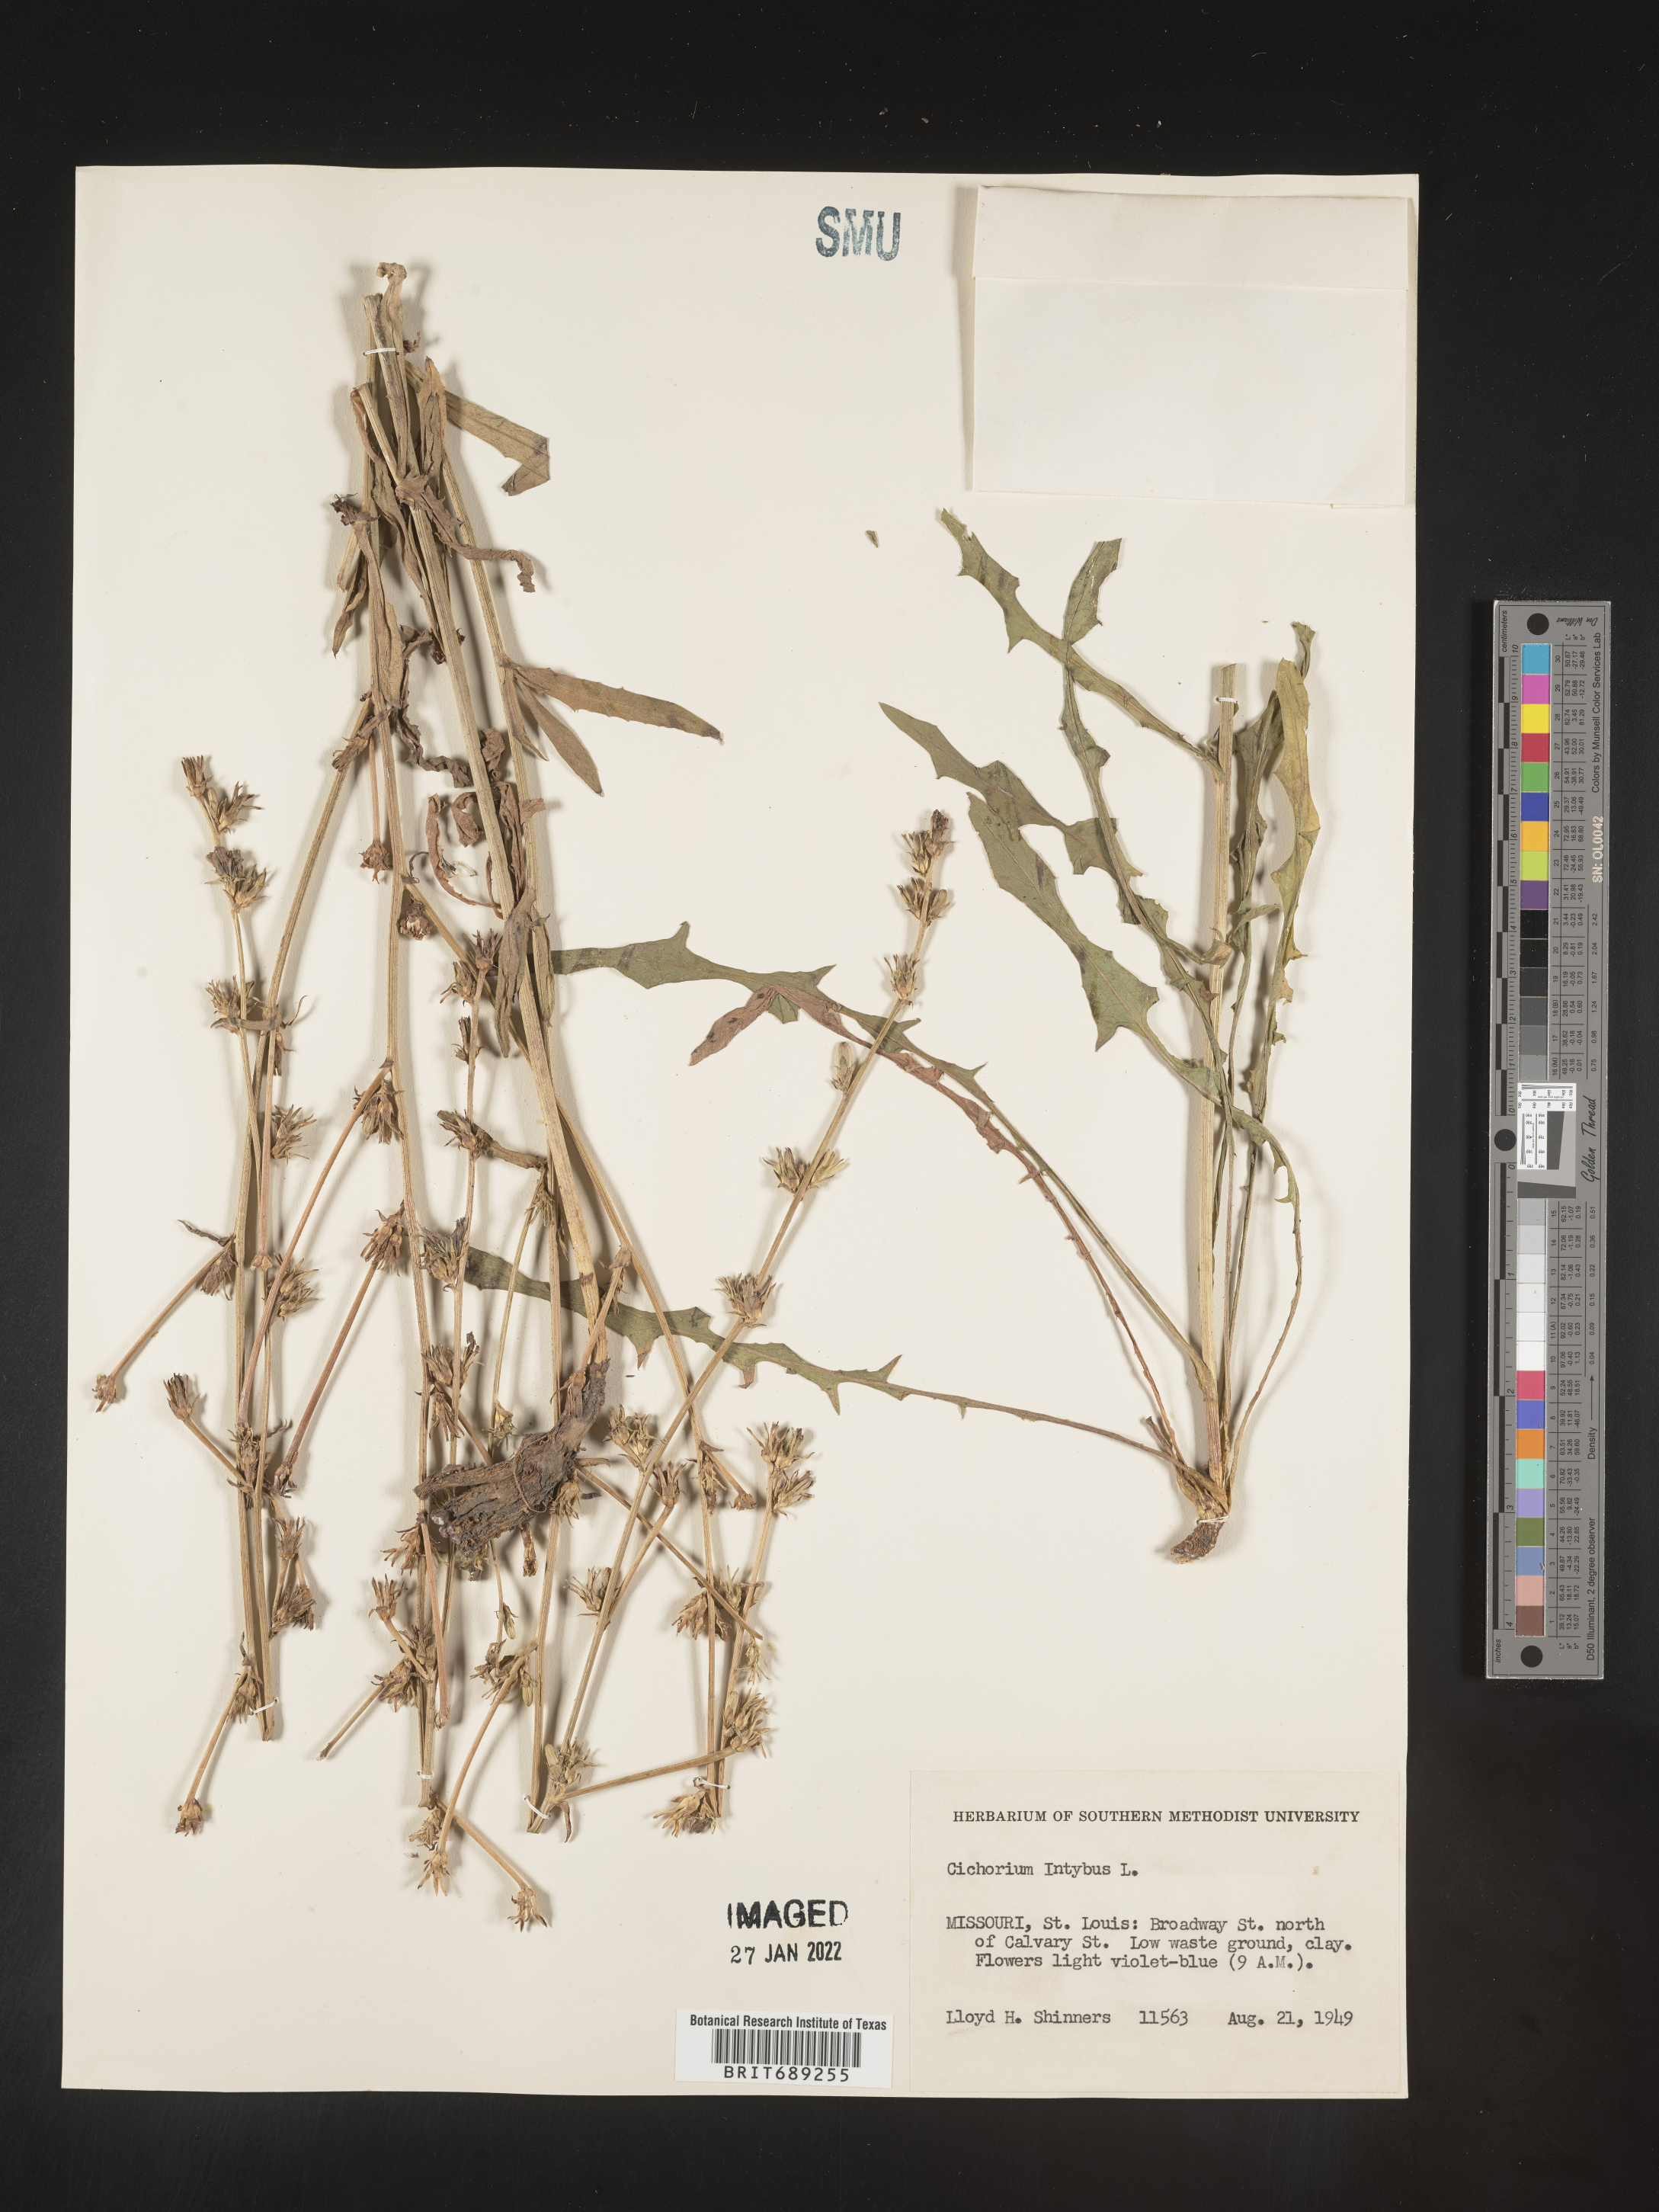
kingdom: Plantae
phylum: Tracheophyta
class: Magnoliopsida
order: Asterales
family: Asteraceae
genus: Cichorium
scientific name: Cichorium intybus
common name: Chicory
